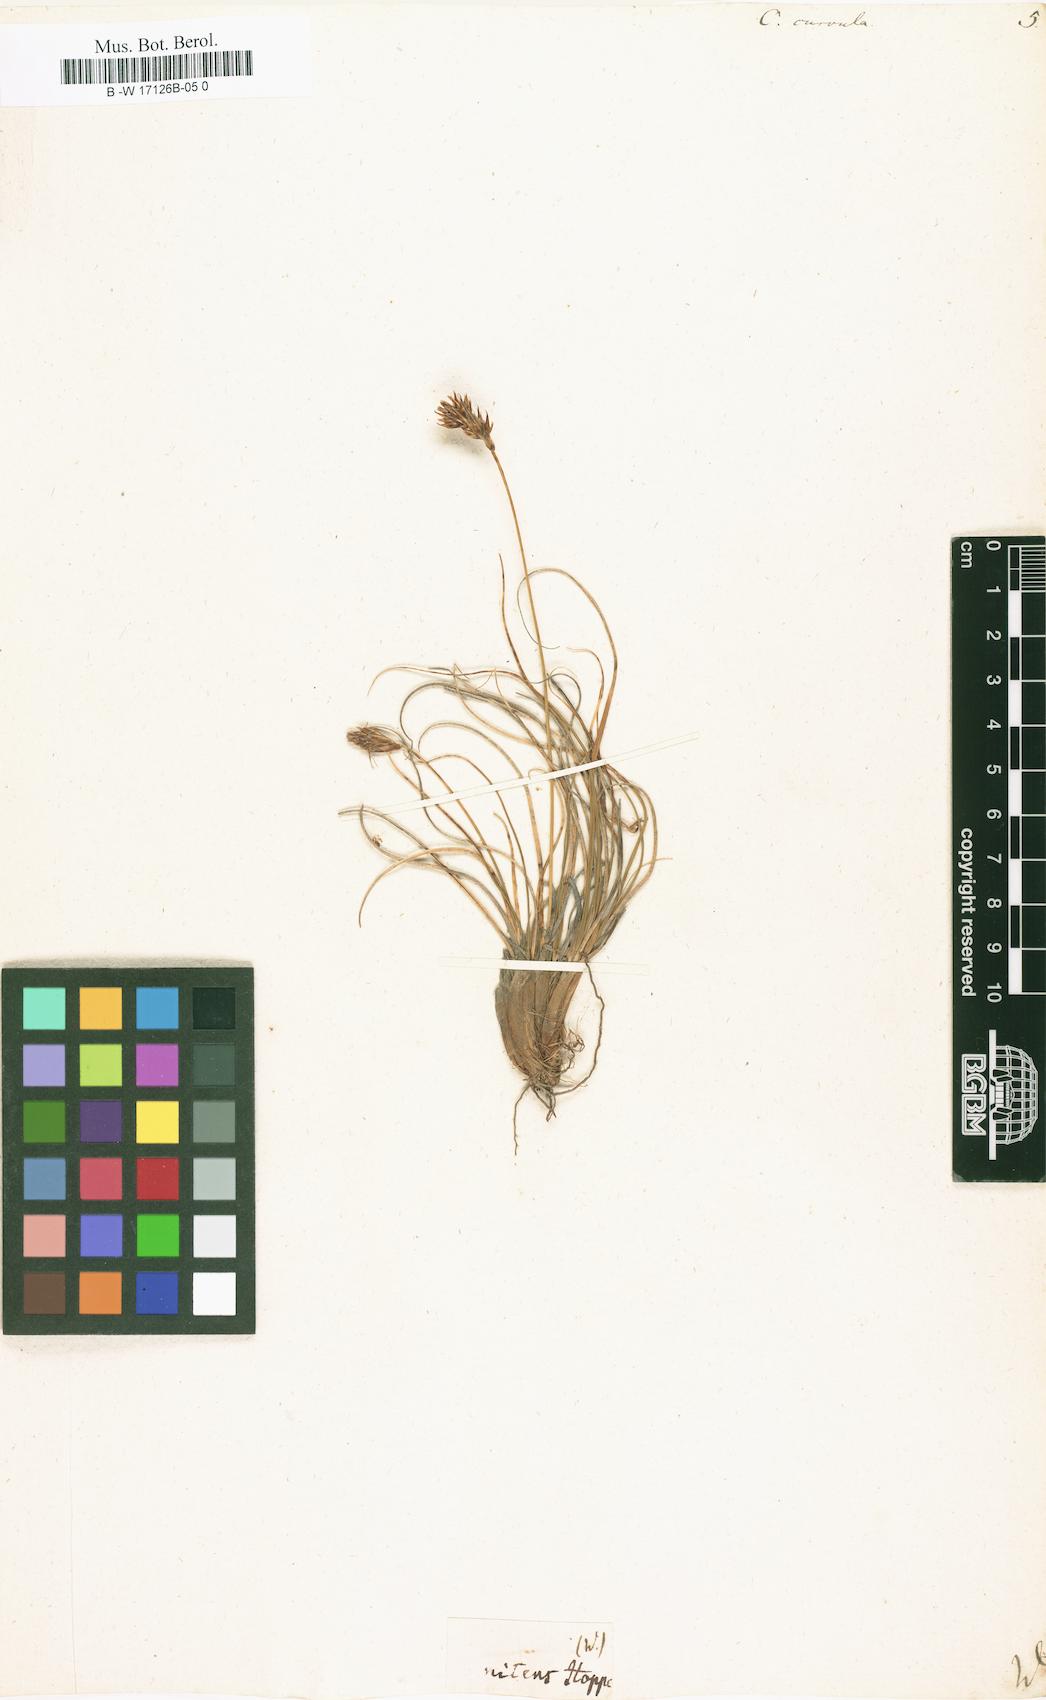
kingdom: Plantae
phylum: Tracheophyta
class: Liliopsida
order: Poales
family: Cyperaceae
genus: Carex
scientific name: Carex curvula
